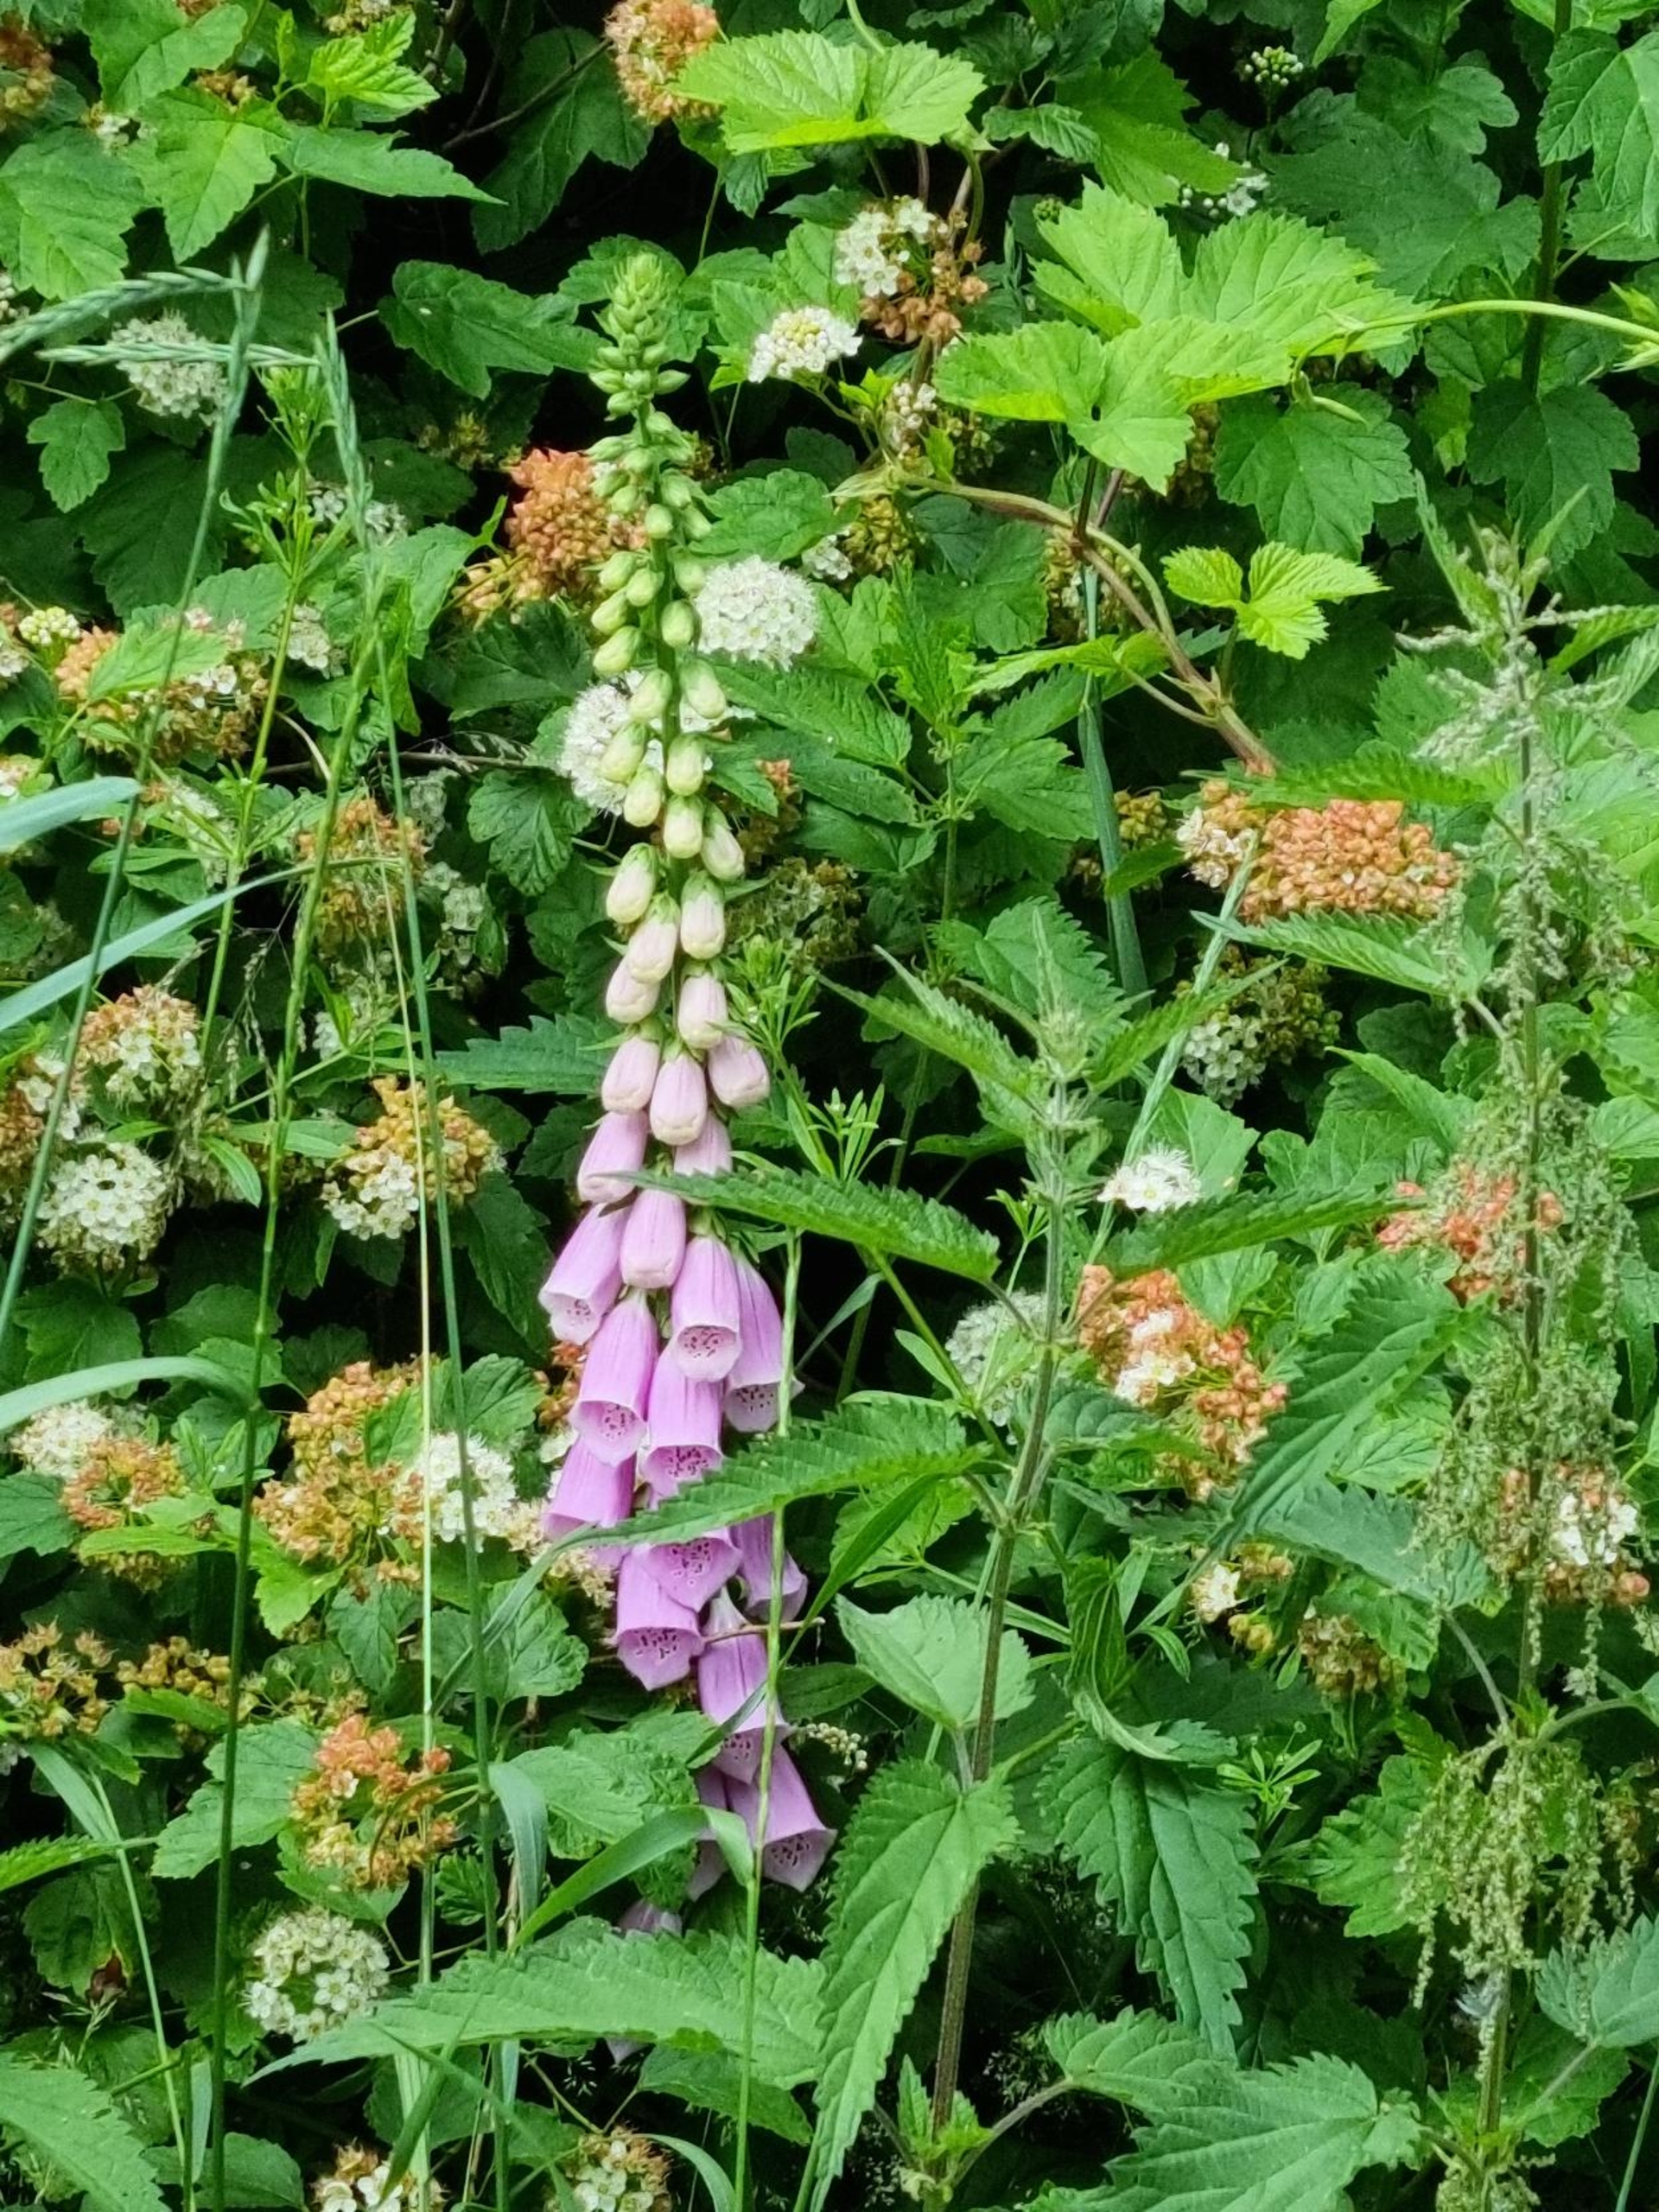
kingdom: Plantae
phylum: Tracheophyta
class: Magnoliopsida
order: Lamiales
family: Plantaginaceae
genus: Digitalis
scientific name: Digitalis purpurea
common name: Almindelig fingerbøl
